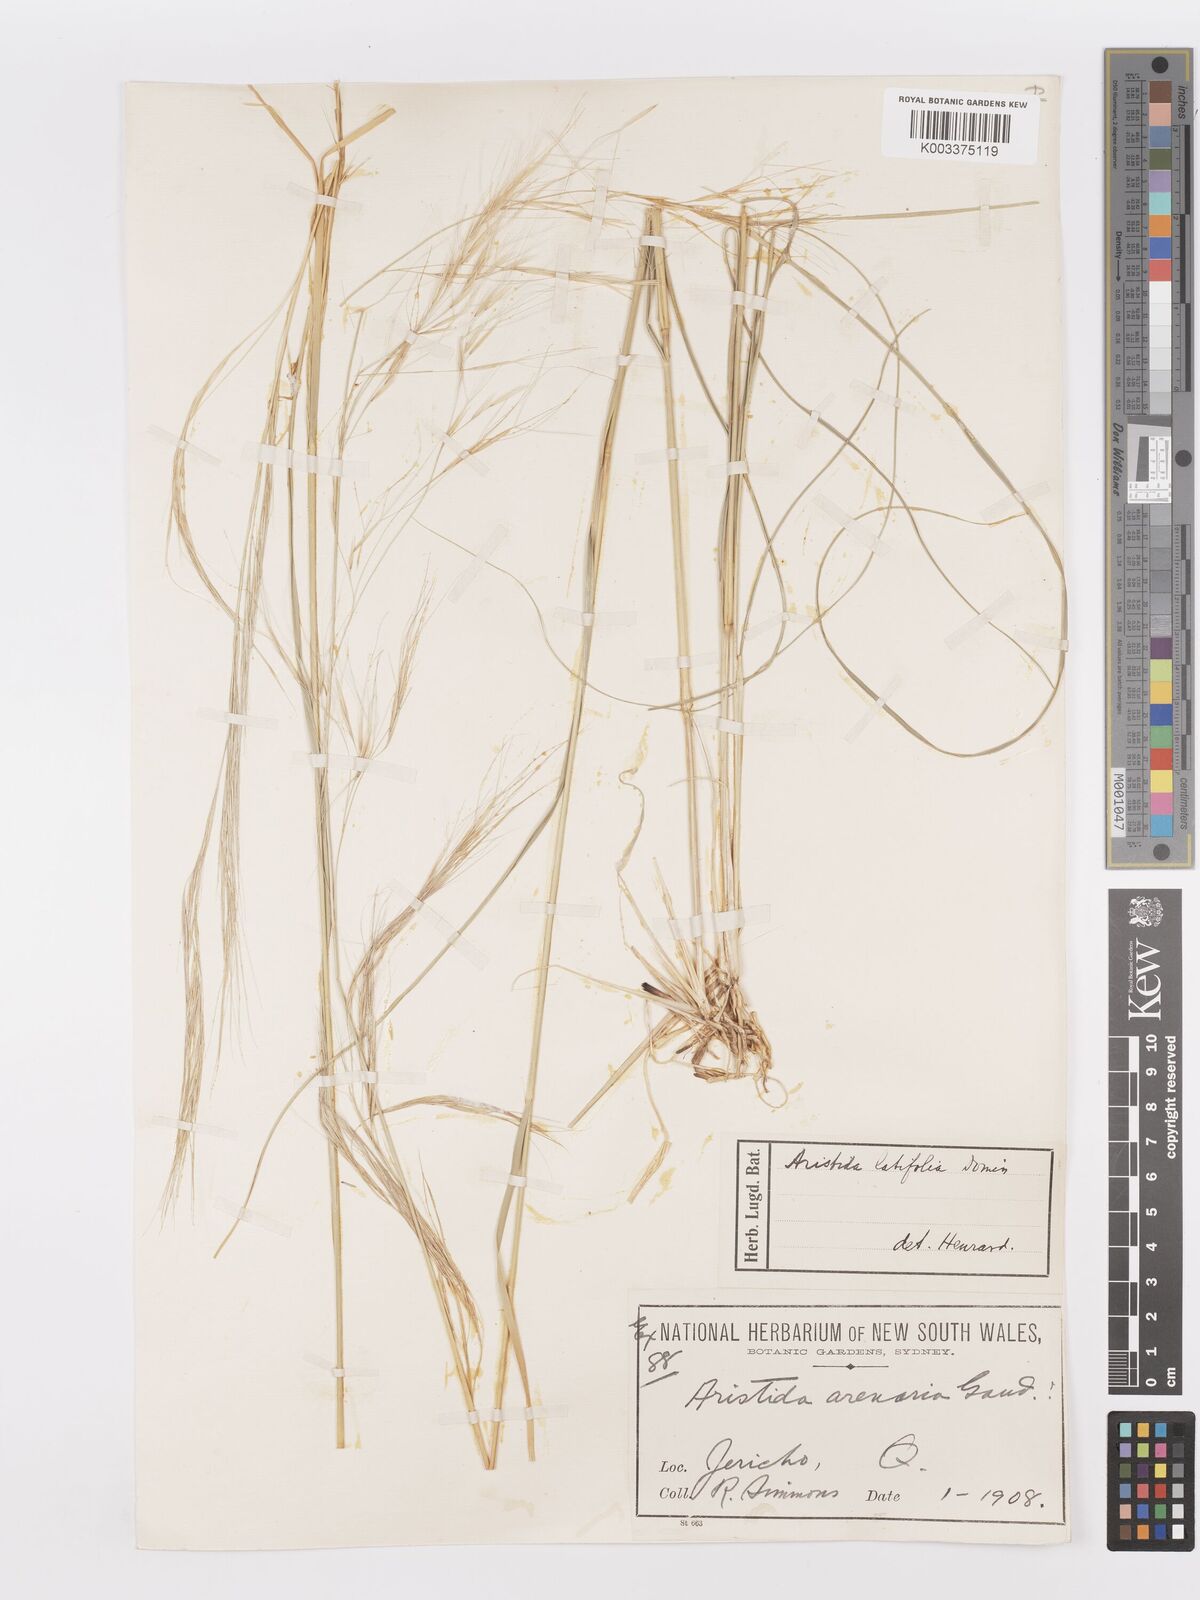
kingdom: Plantae
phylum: Tracheophyta
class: Liliopsida
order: Poales
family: Poaceae
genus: Aristida
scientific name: Aristida latifolia
